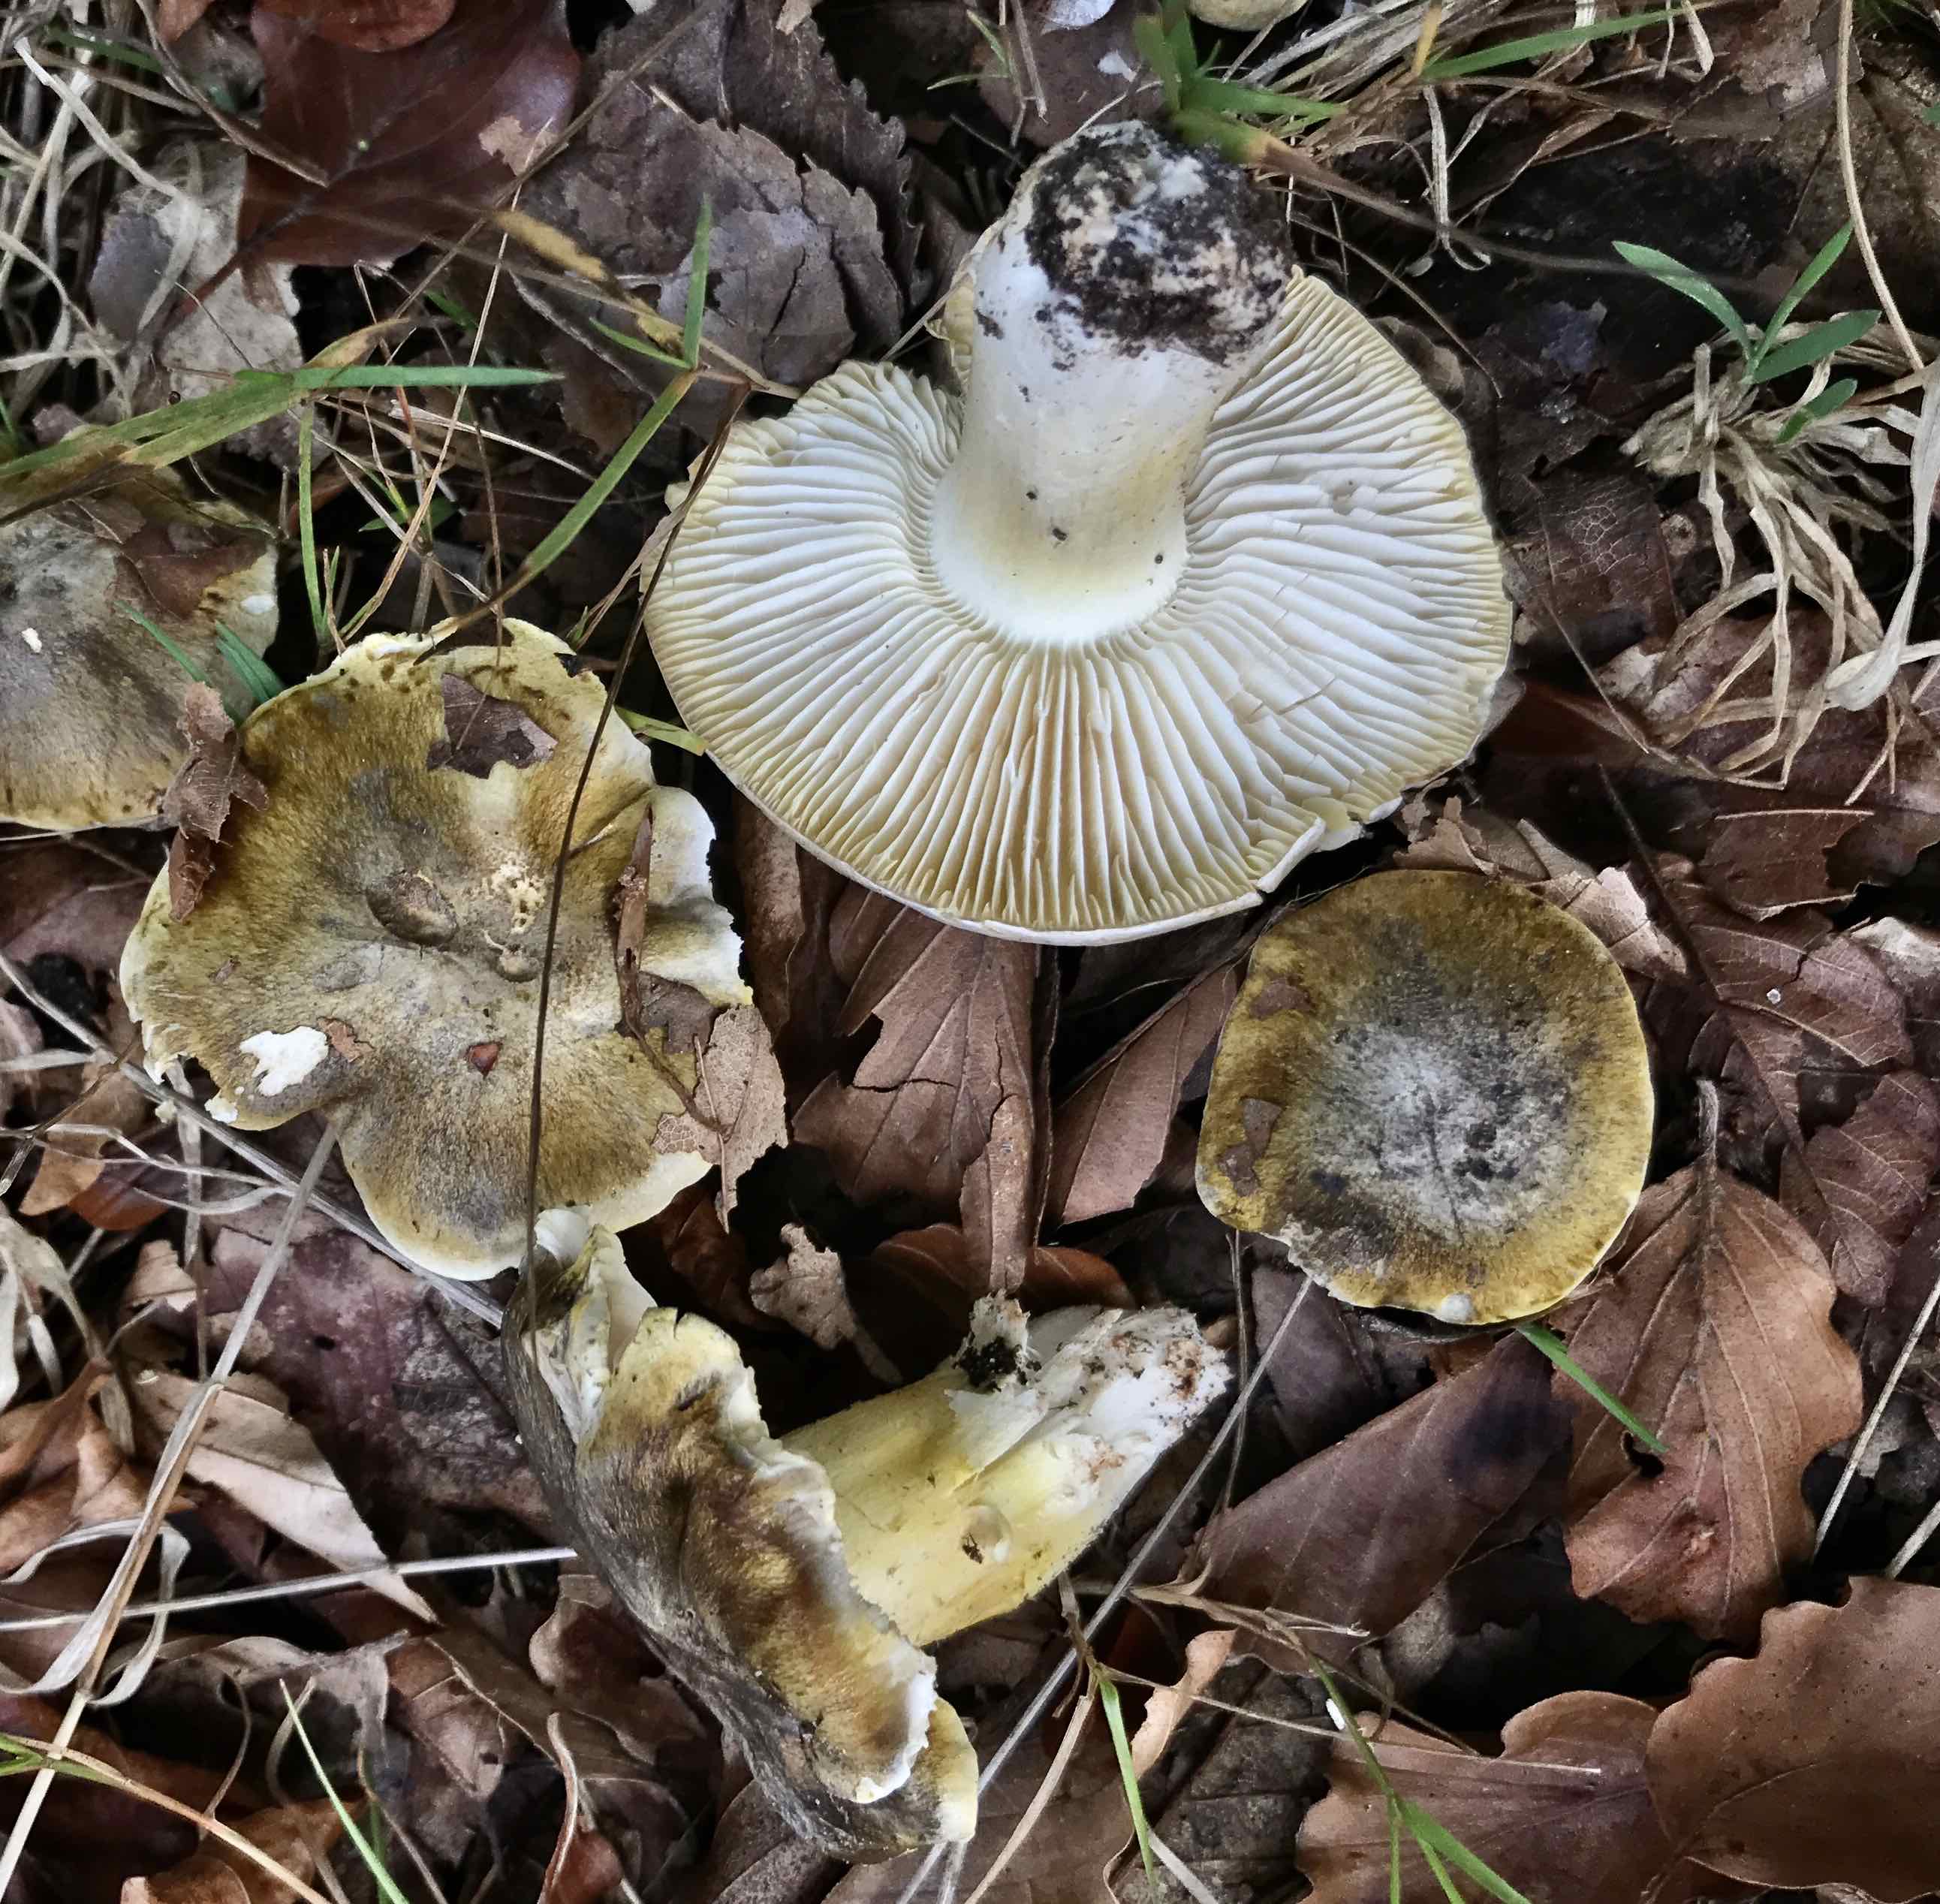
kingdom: Fungi
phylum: Basidiomycota
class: Agaricomycetes
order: Agaricales
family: Tricholomataceae
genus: Tricholoma
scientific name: Tricholoma sejunctum
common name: grøngul ridderhat
